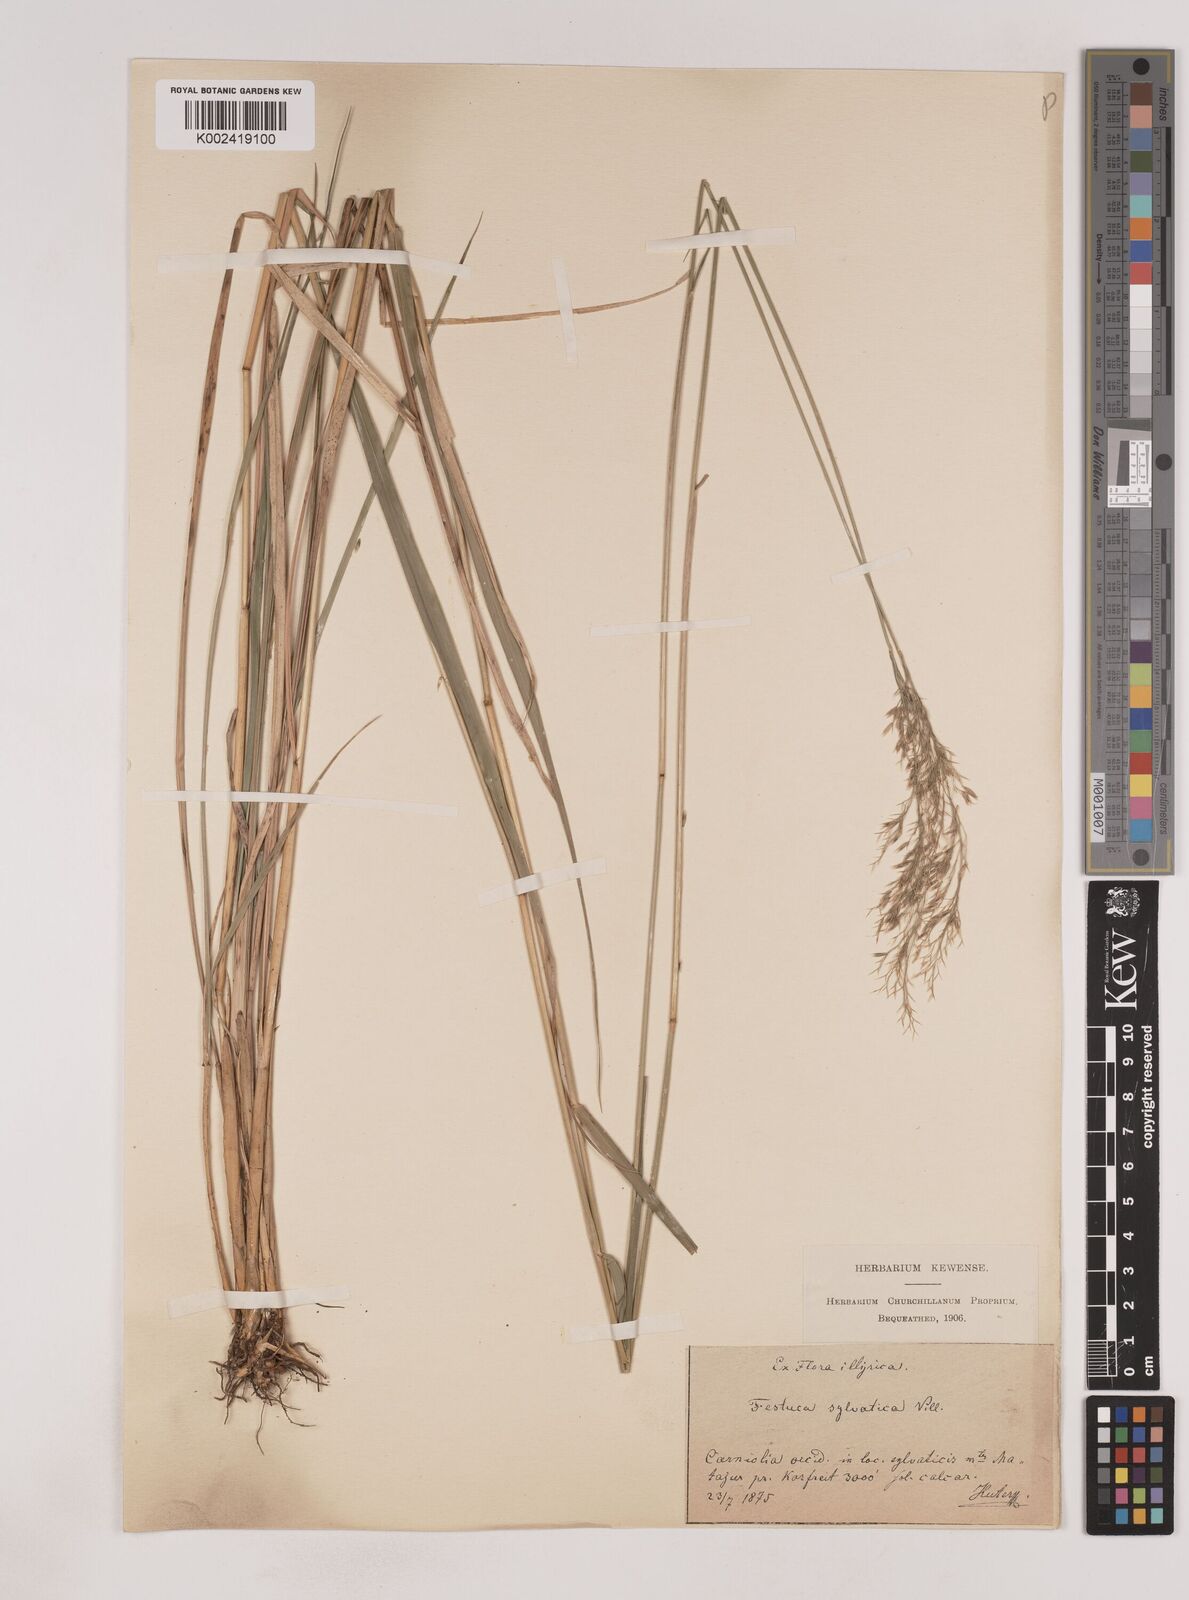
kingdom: Plantae
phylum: Tracheophyta
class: Liliopsida
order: Poales
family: Poaceae
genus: Festuca
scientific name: Festuca drymeja
